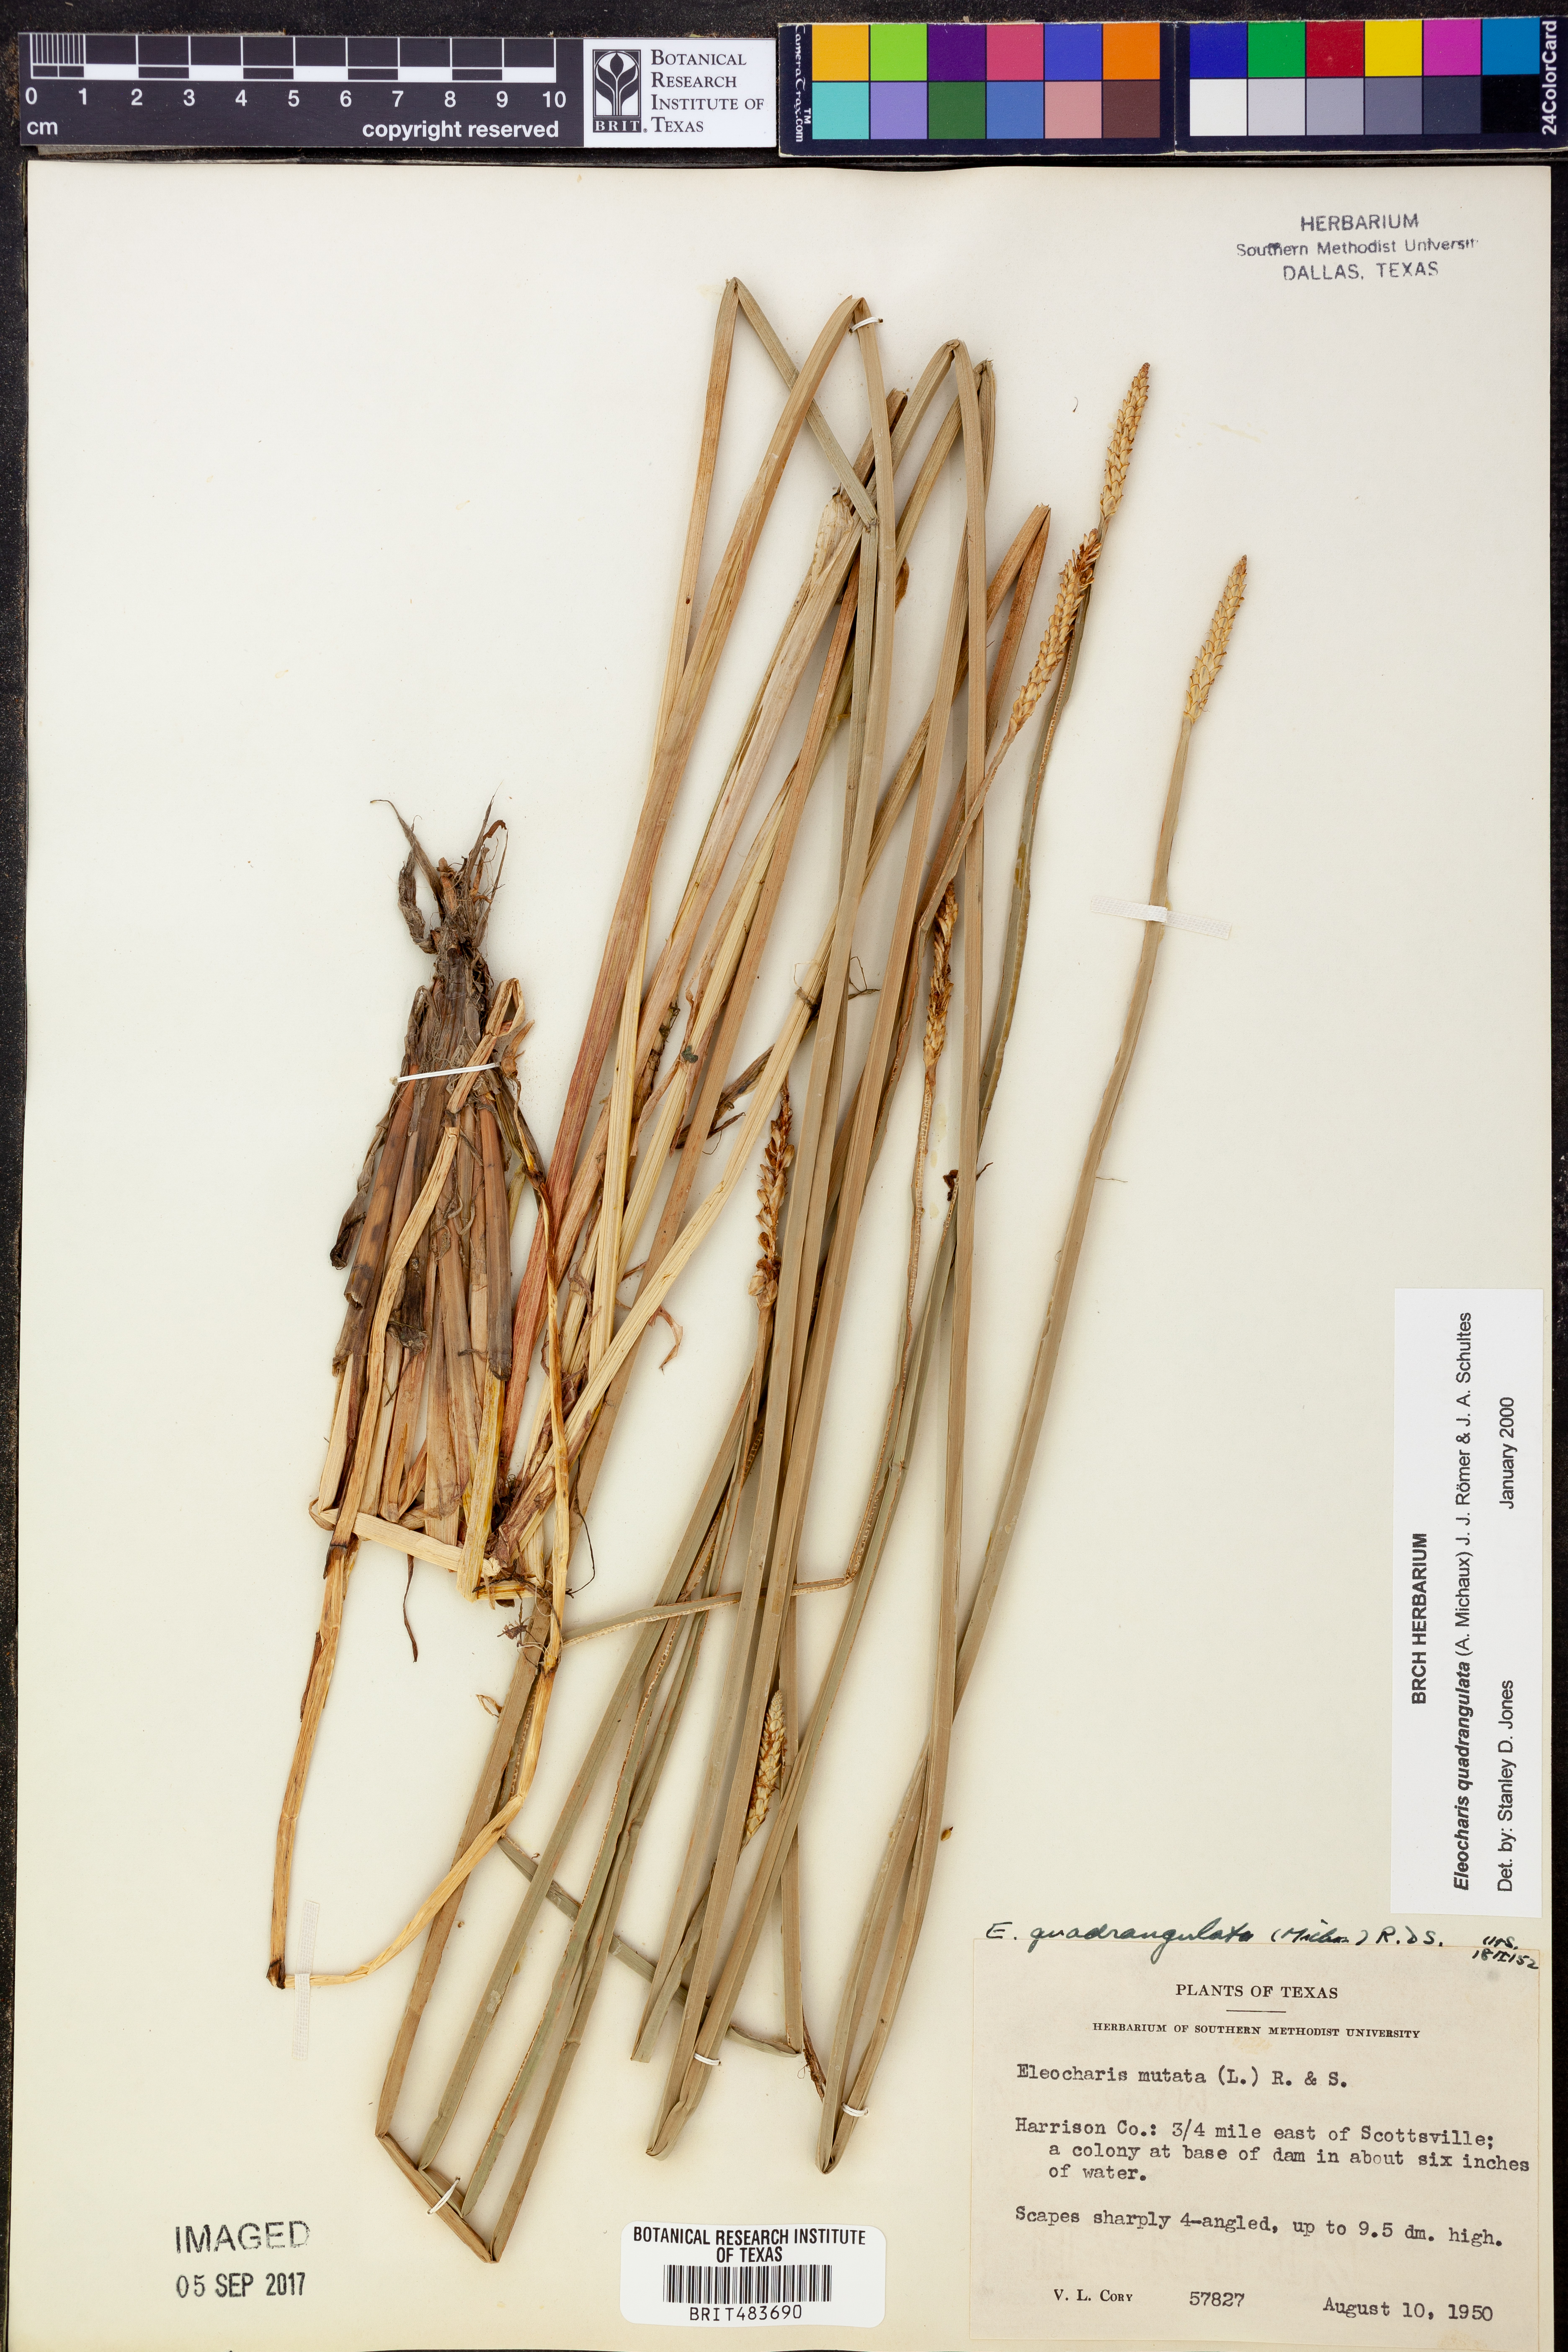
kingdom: Plantae
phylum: Tracheophyta
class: Liliopsida
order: Poales
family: Cyperaceae
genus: Eleocharis
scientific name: Eleocharis quadrangulata
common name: Square-stem spike-rush
